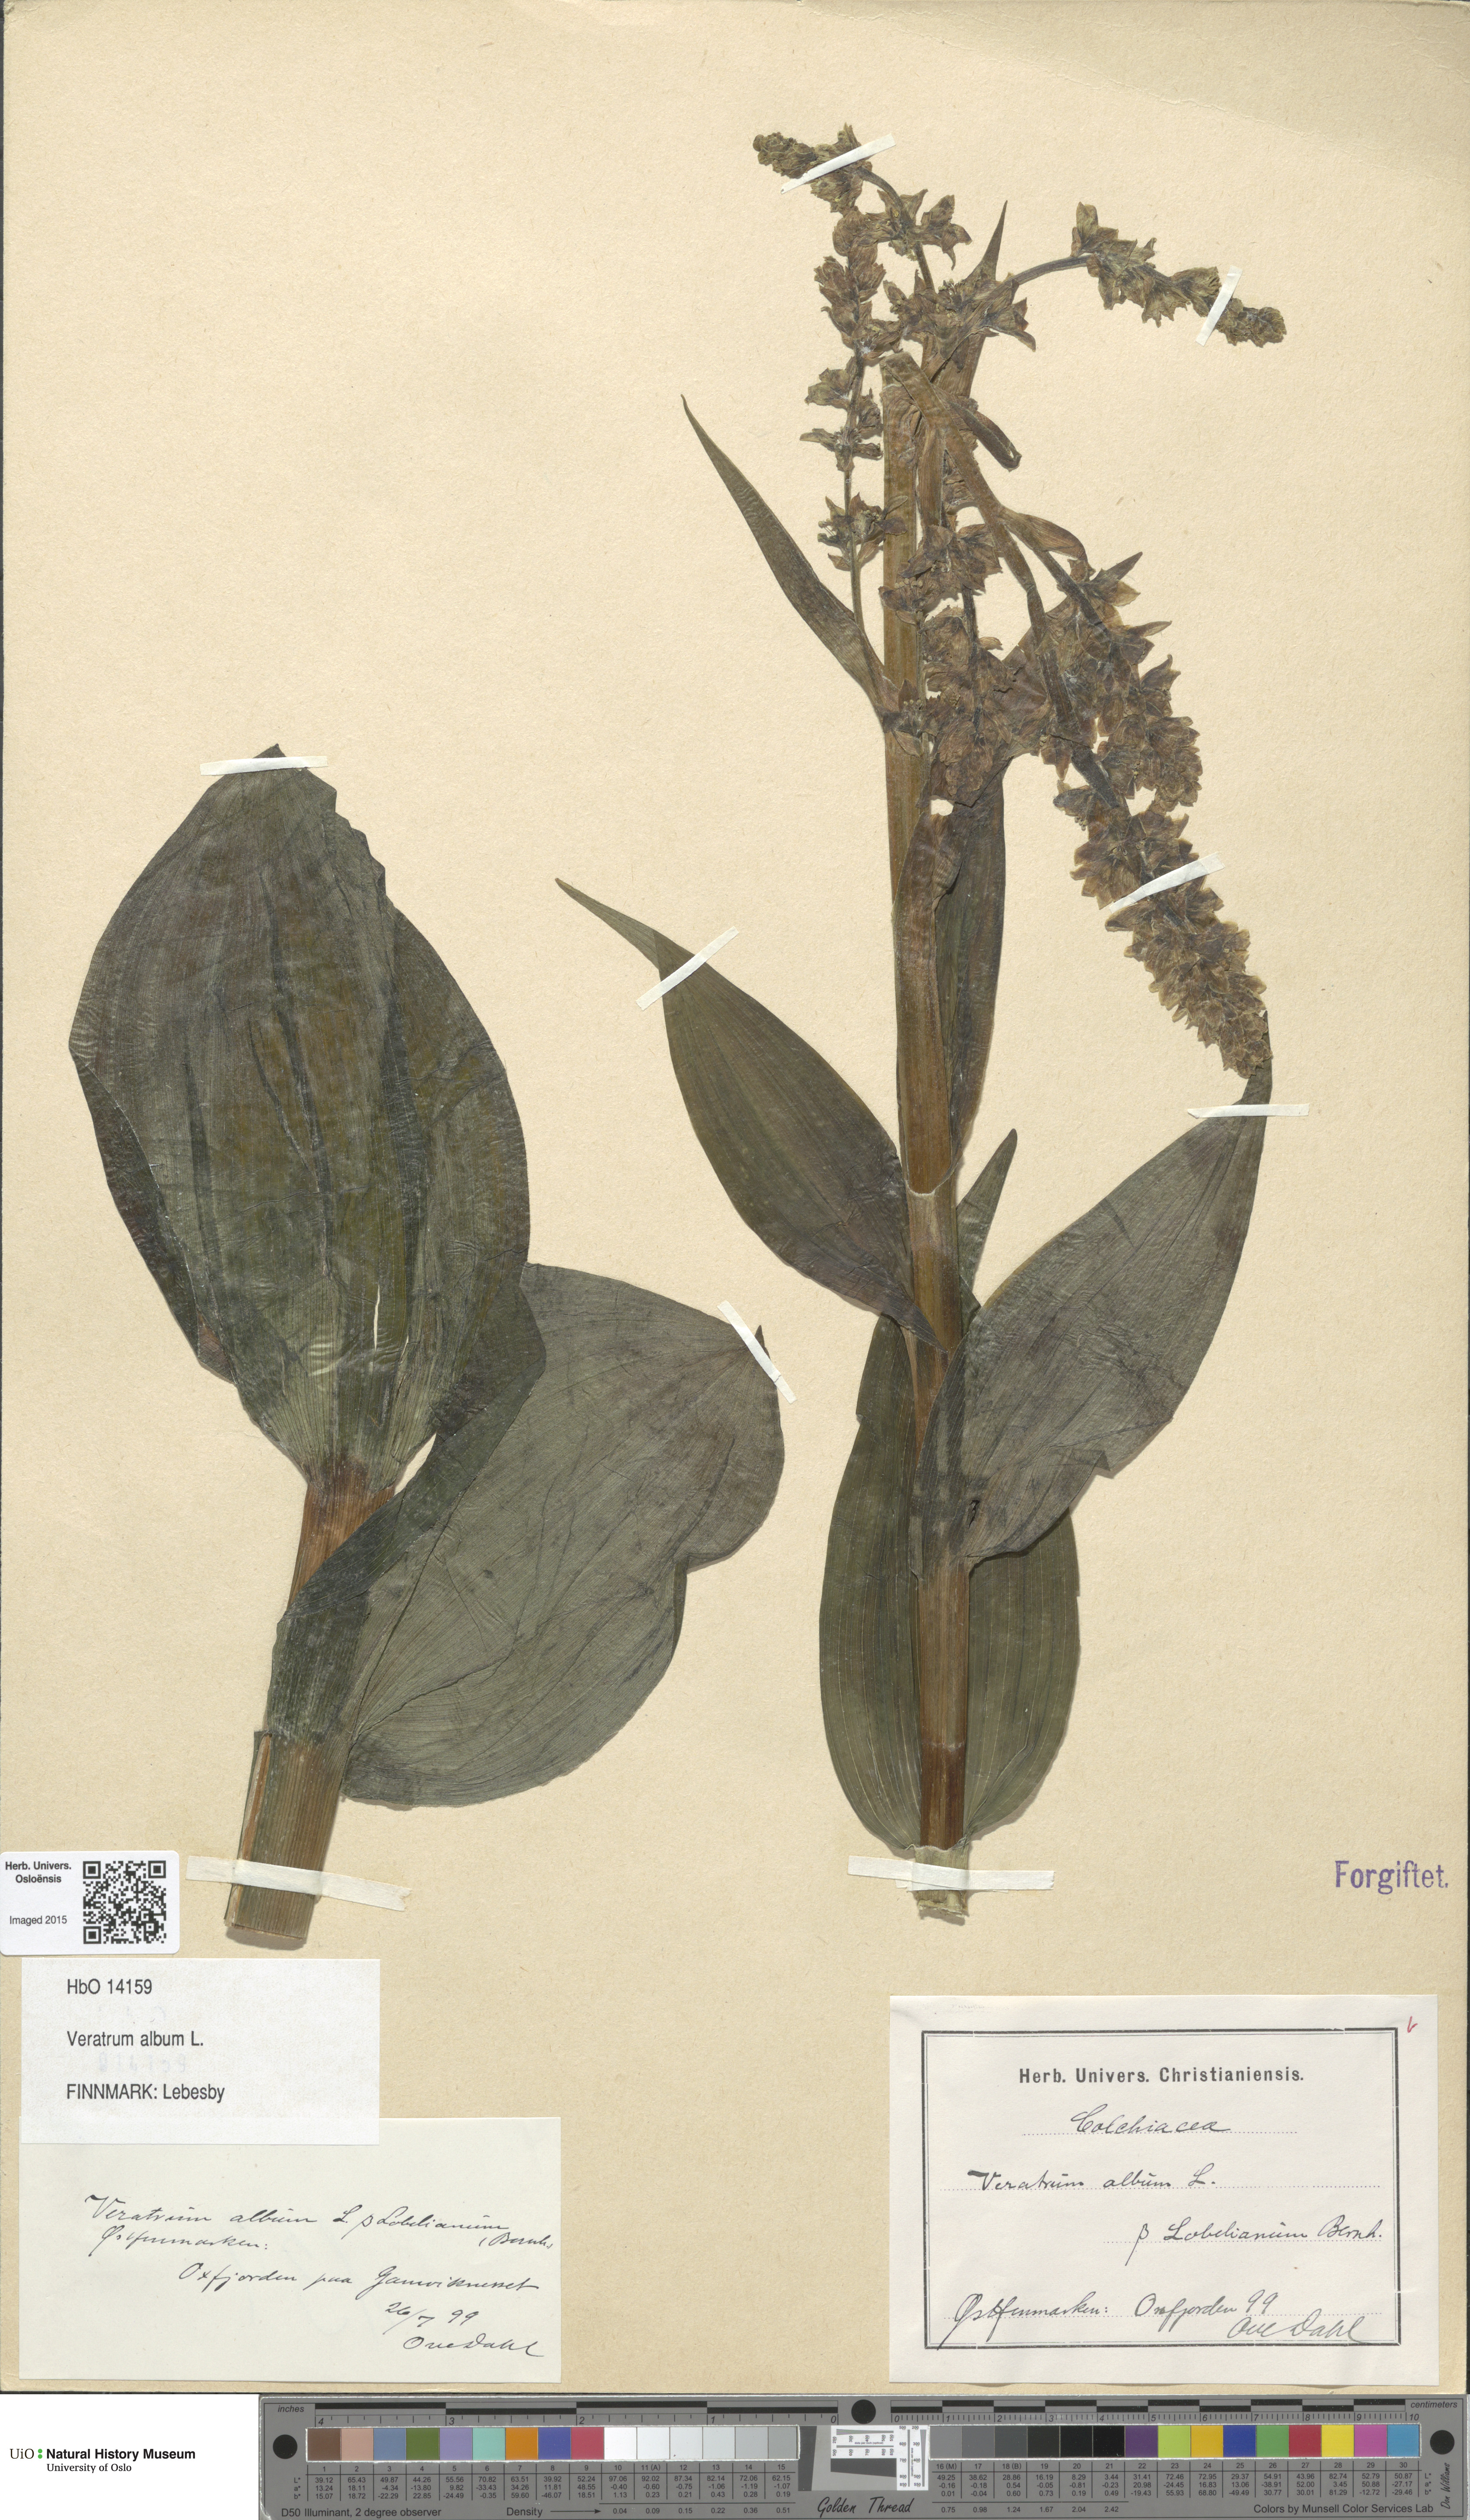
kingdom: Plantae
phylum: Tracheophyta
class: Liliopsida
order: Liliales
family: Melanthiaceae
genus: Veratrum
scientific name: Veratrum album
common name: White veratrum
